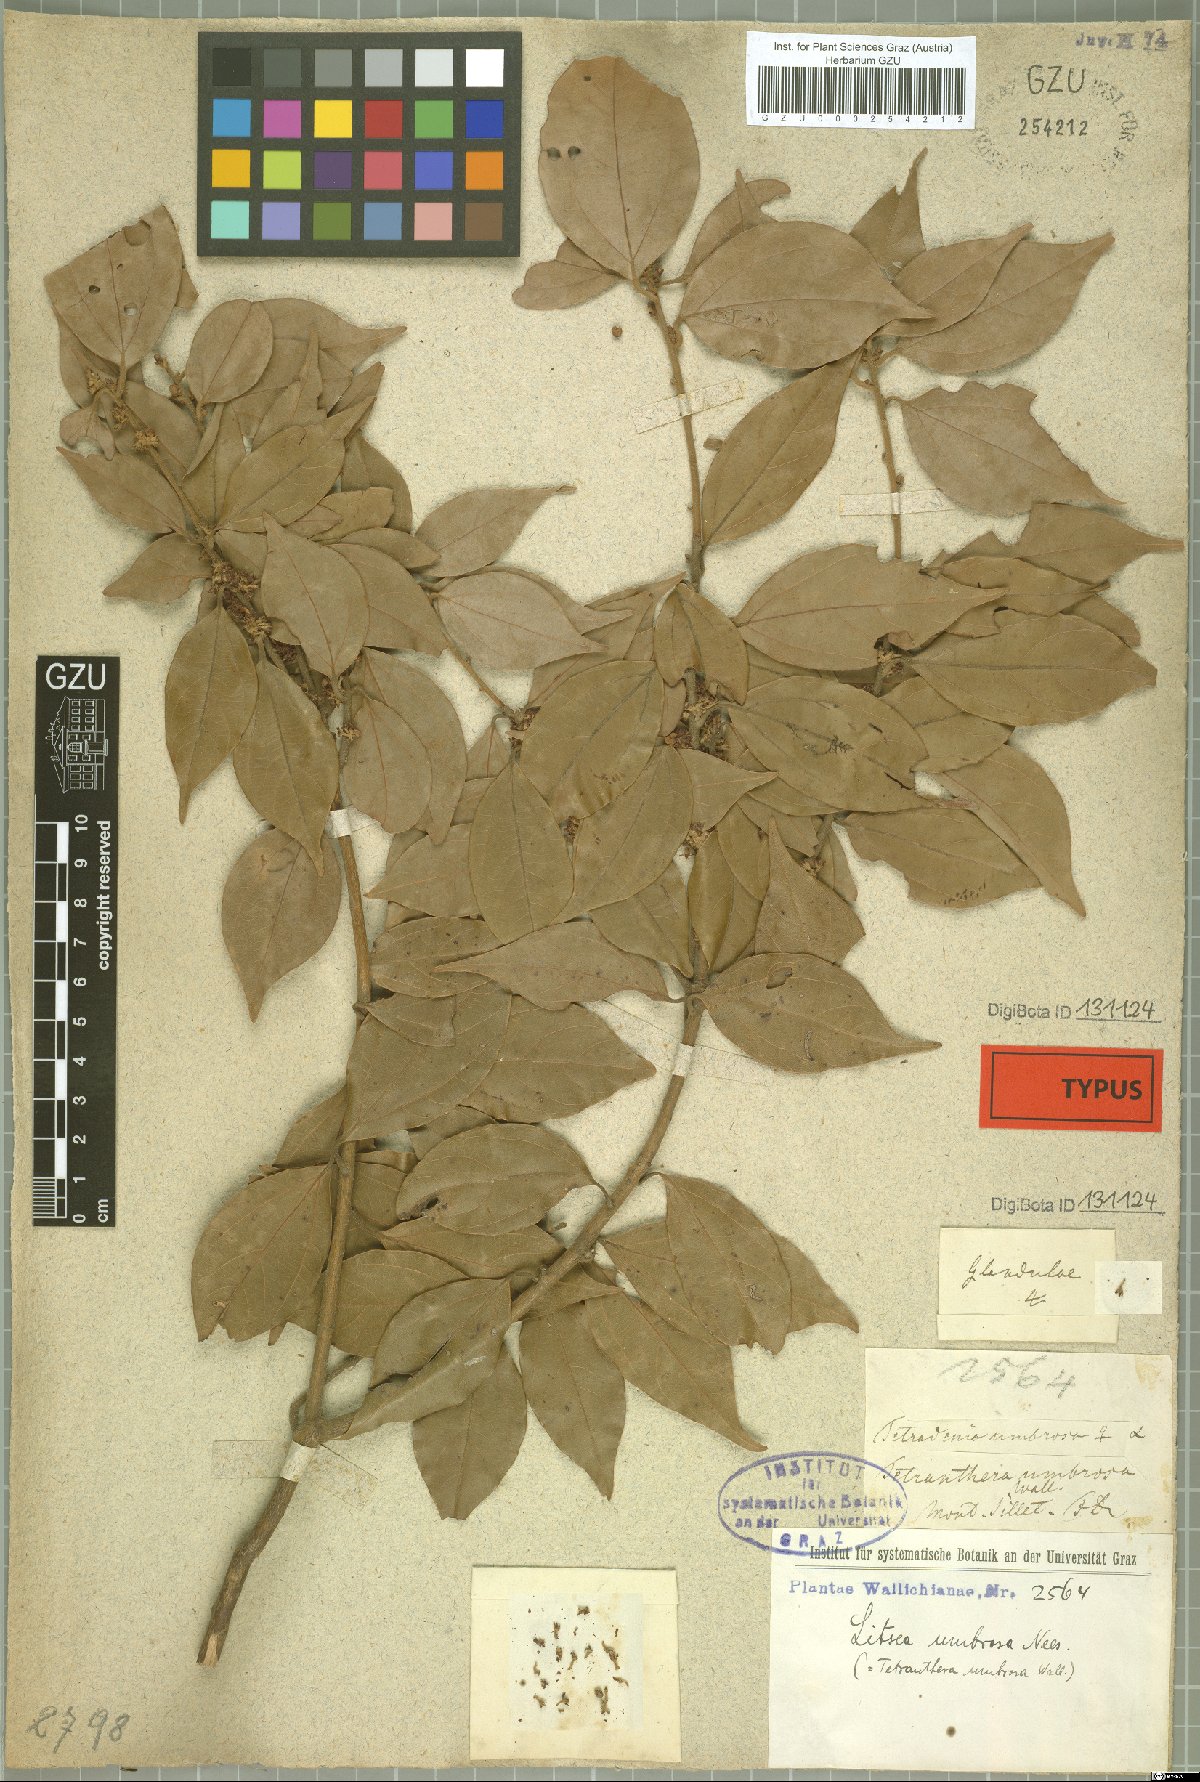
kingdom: Plantae
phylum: Tracheophyta
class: Magnoliopsida
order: Laurales
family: Lauraceae
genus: Neolitsea
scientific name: Neolitsea umbrosa
